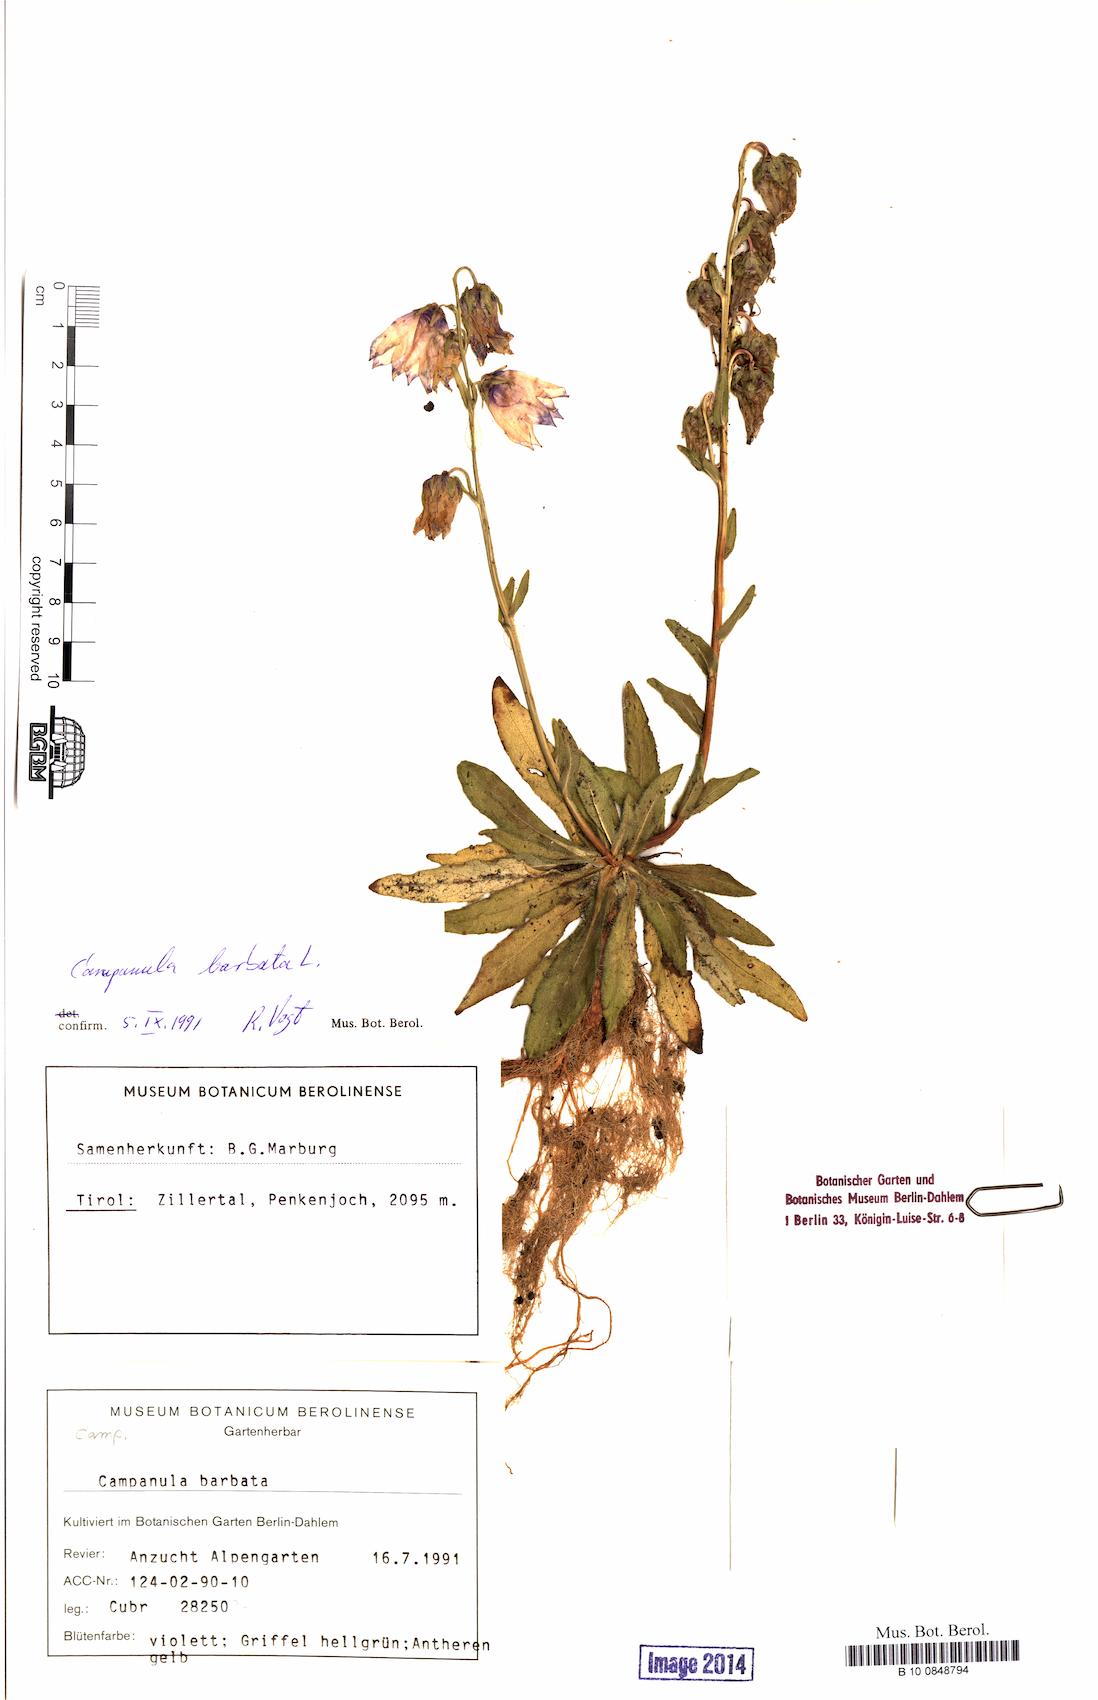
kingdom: Plantae
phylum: Tracheophyta
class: Magnoliopsida
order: Asterales
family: Campanulaceae
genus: Campanula
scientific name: Campanula barbata
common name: Bearded bellflower
